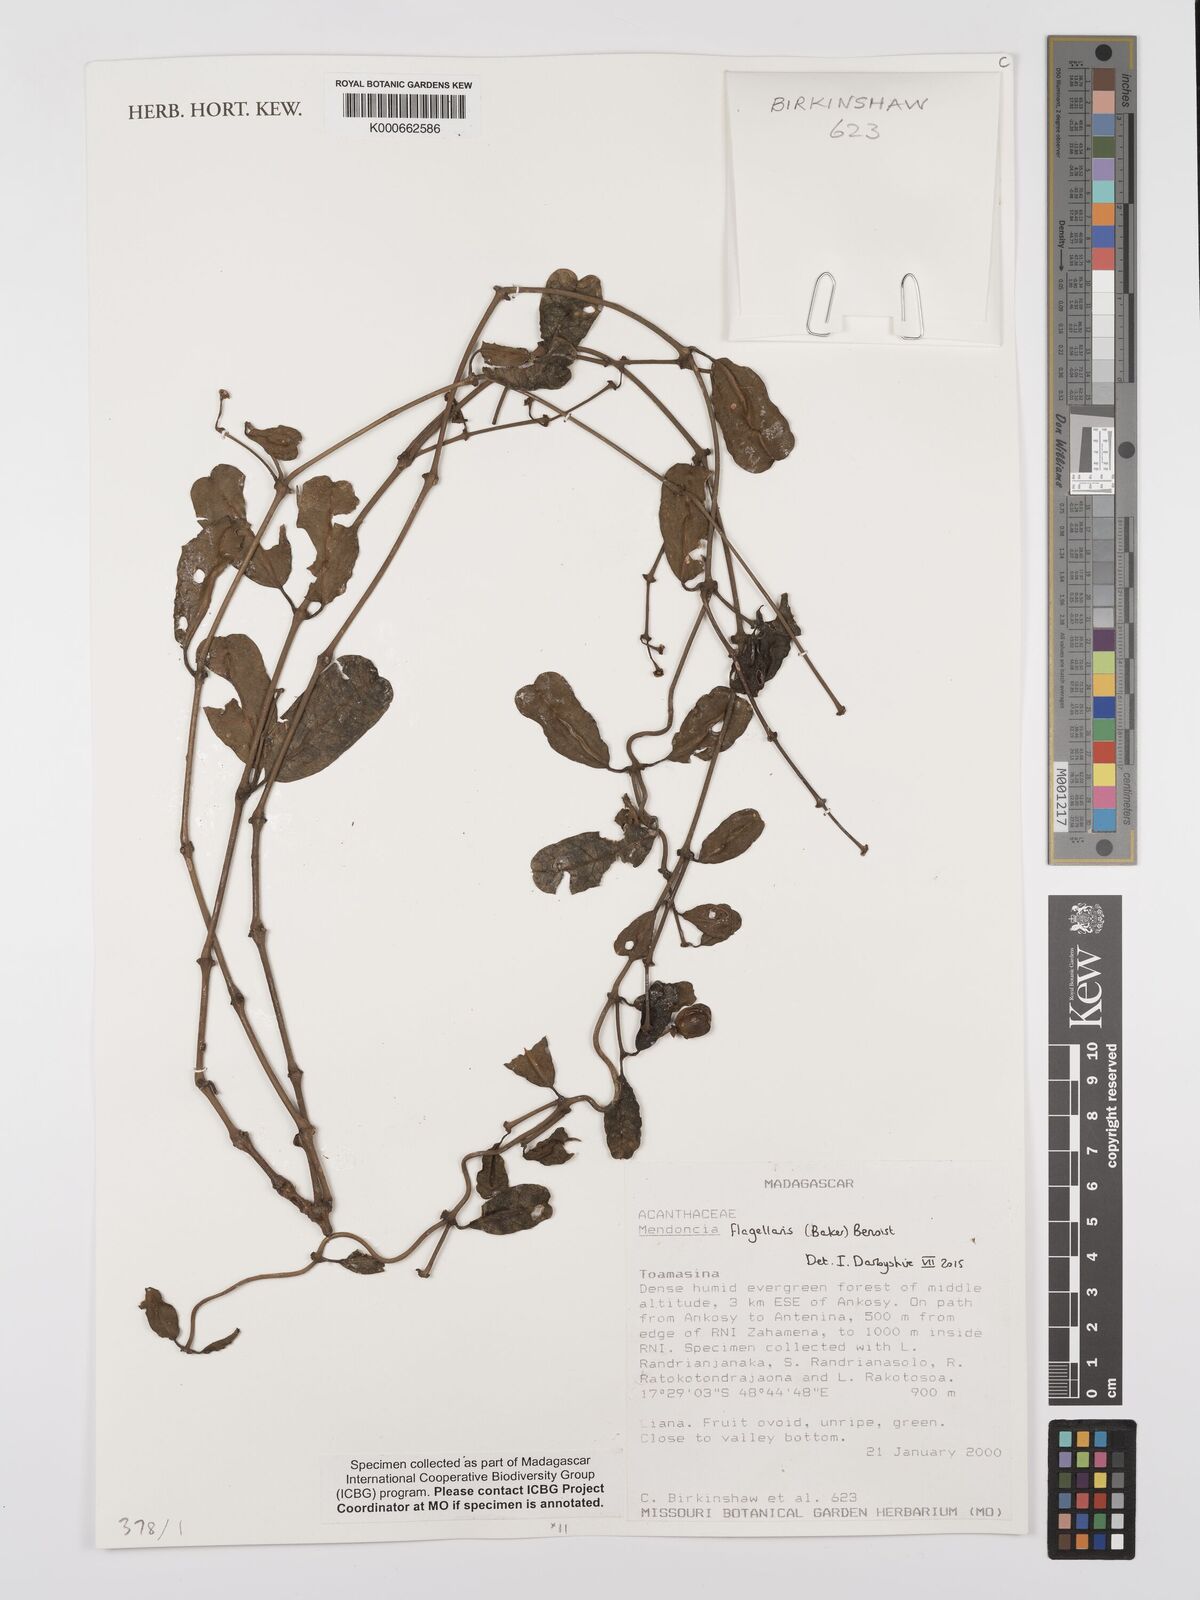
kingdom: Plantae
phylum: Tracheophyta
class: Magnoliopsida
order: Lamiales
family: Acanthaceae
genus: Mendoncia
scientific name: Mendoncia flagellaris
